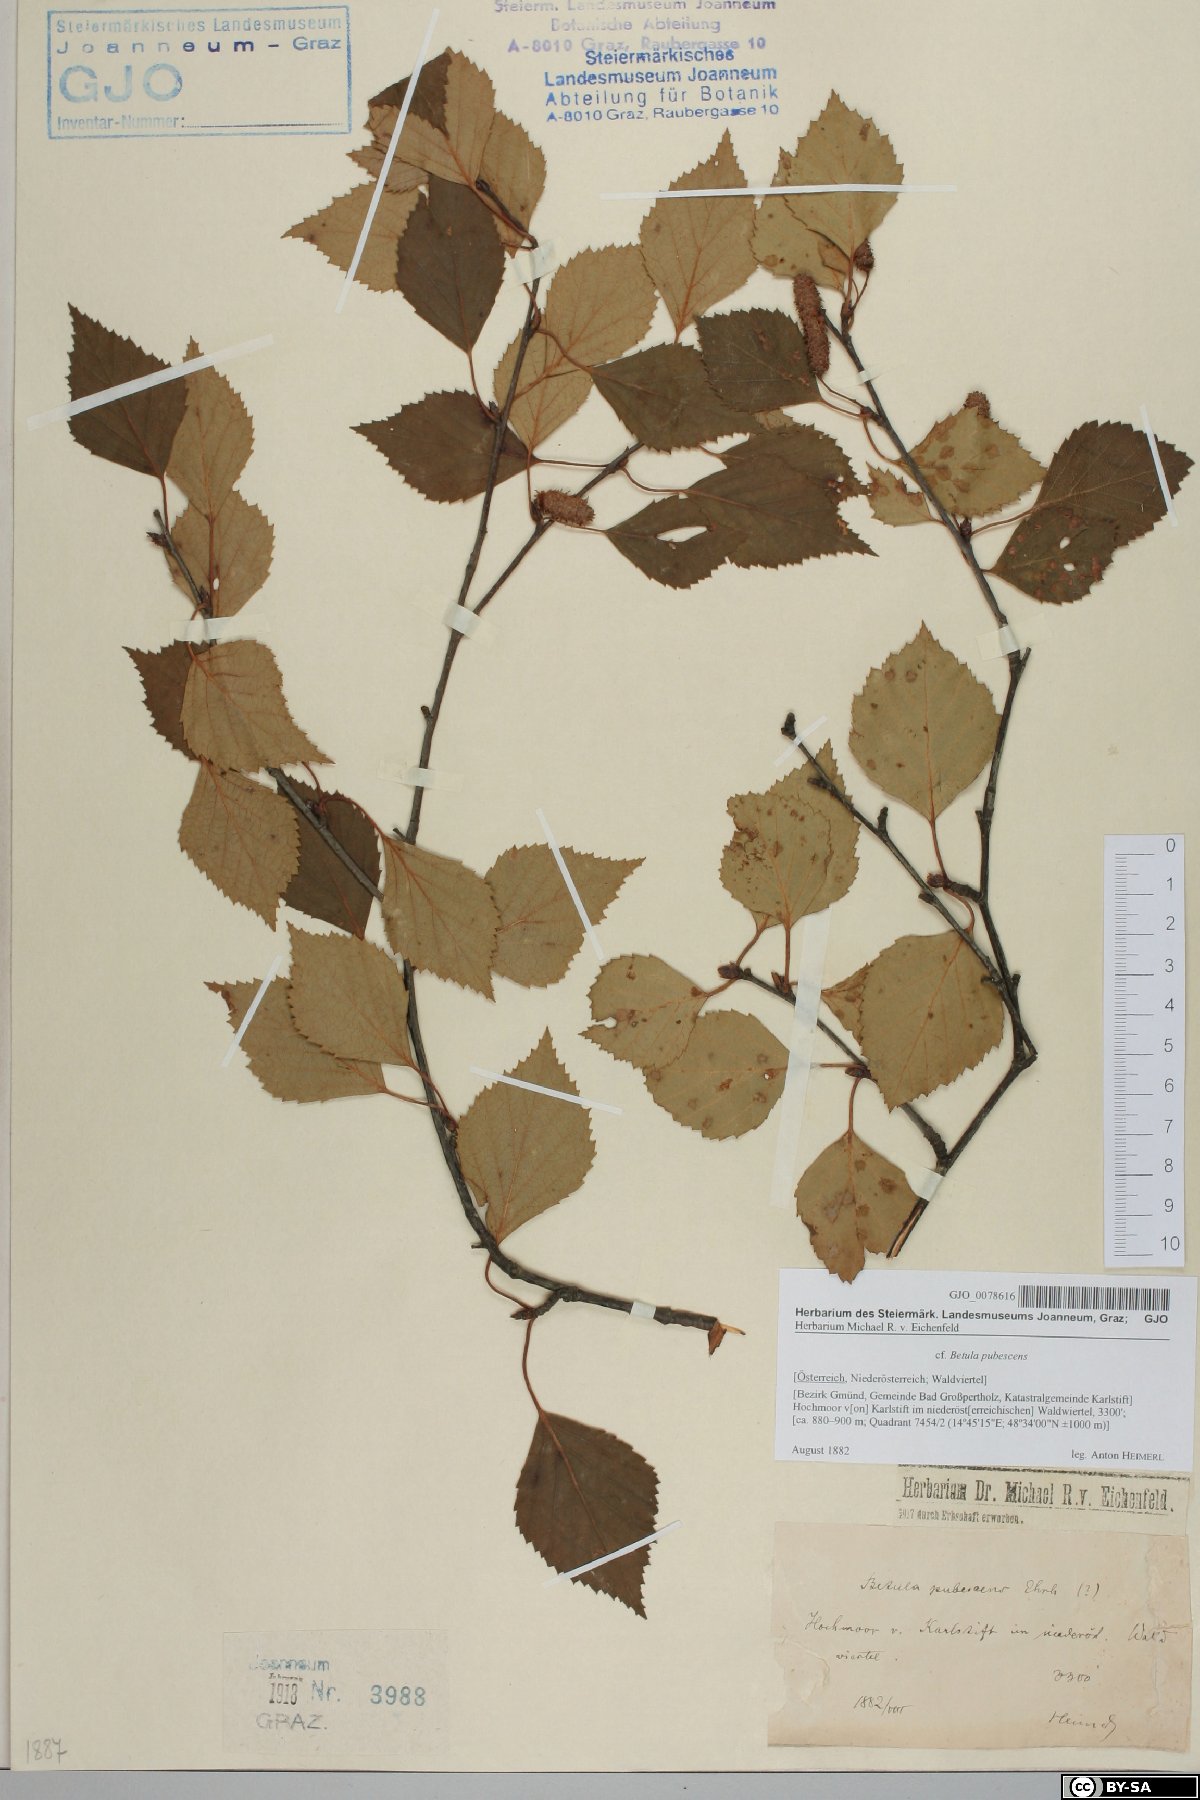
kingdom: Plantae
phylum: Tracheophyta
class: Magnoliopsida
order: Fagales
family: Betulaceae
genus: Betula
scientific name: Betula pubescens
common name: Downy birch
